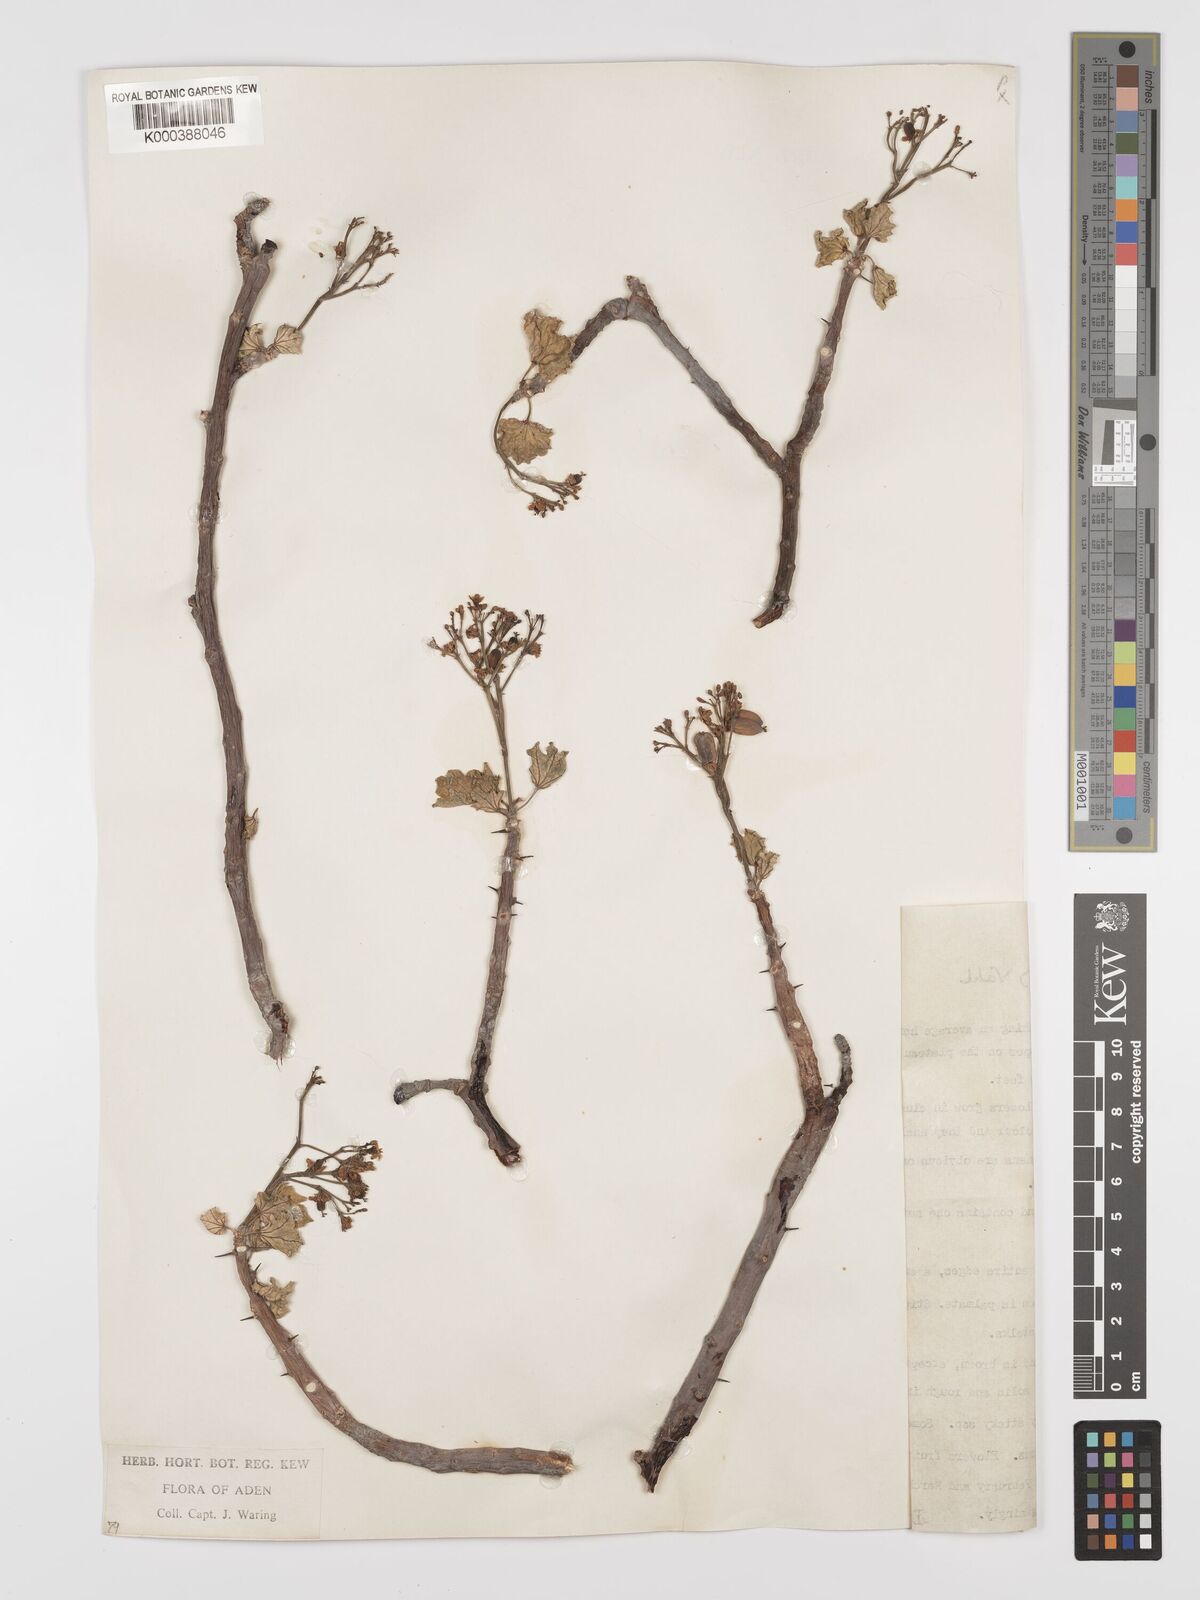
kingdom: Plantae
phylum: Tracheophyta
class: Magnoliopsida
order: Malpighiales
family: Euphorbiaceae
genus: Jatropha
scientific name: Jatropha spinosa
